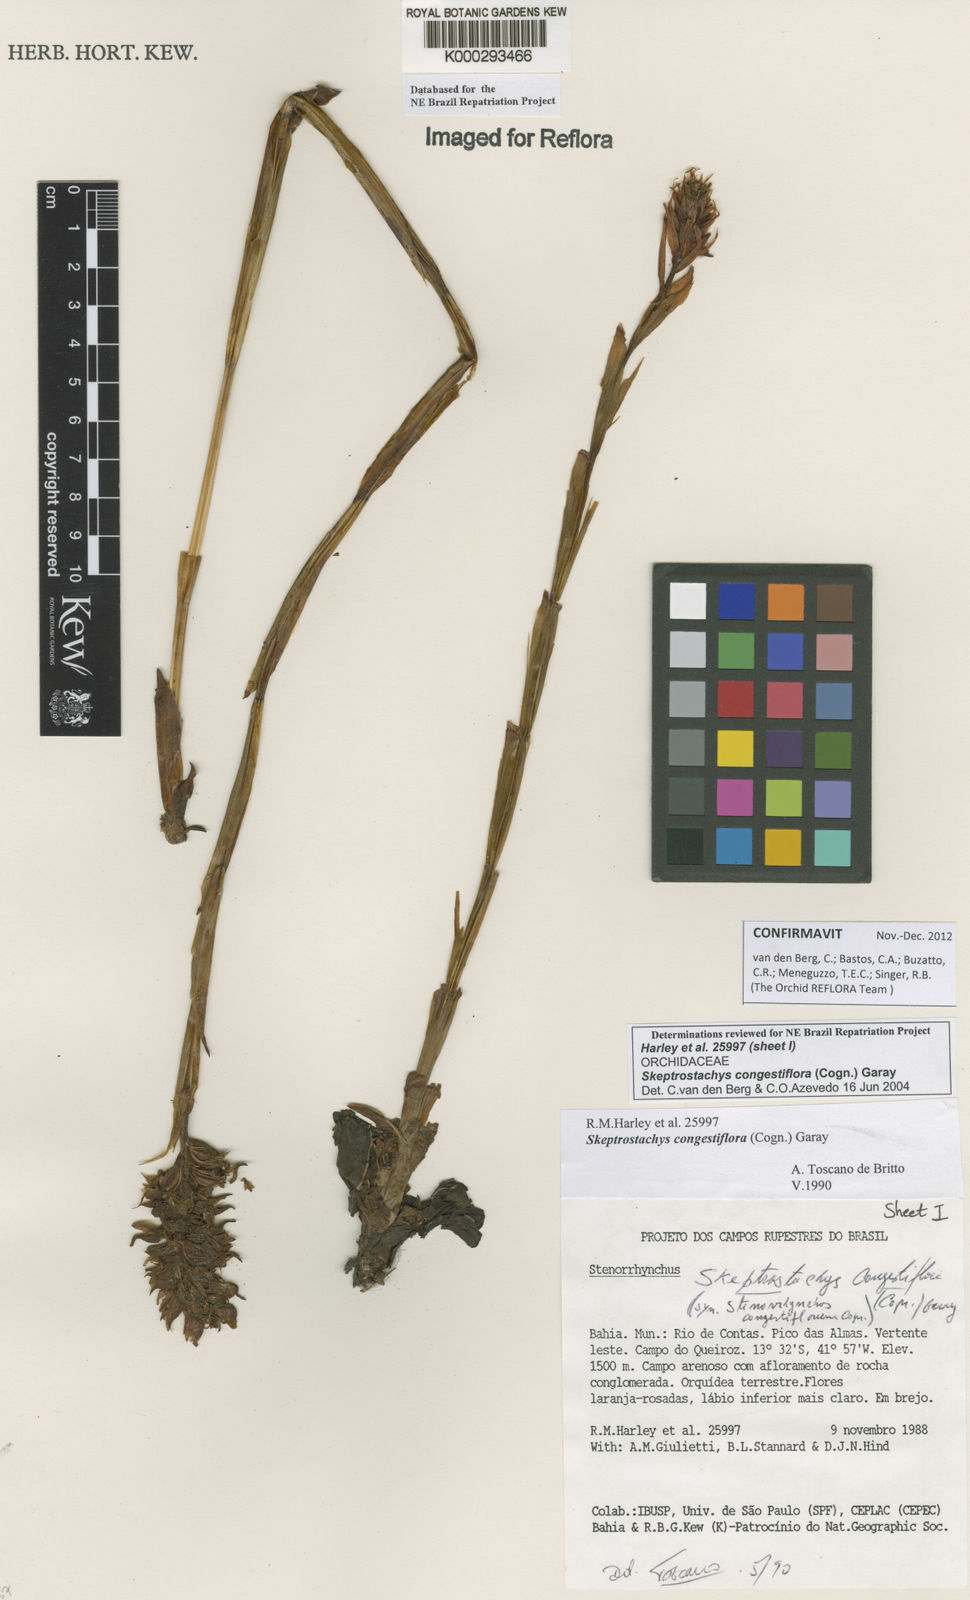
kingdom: Plantae
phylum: Tracheophyta
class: Liliopsida
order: Asparagales
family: Orchidaceae
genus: Skeptrostachys
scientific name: Skeptrostachys congestiflora
